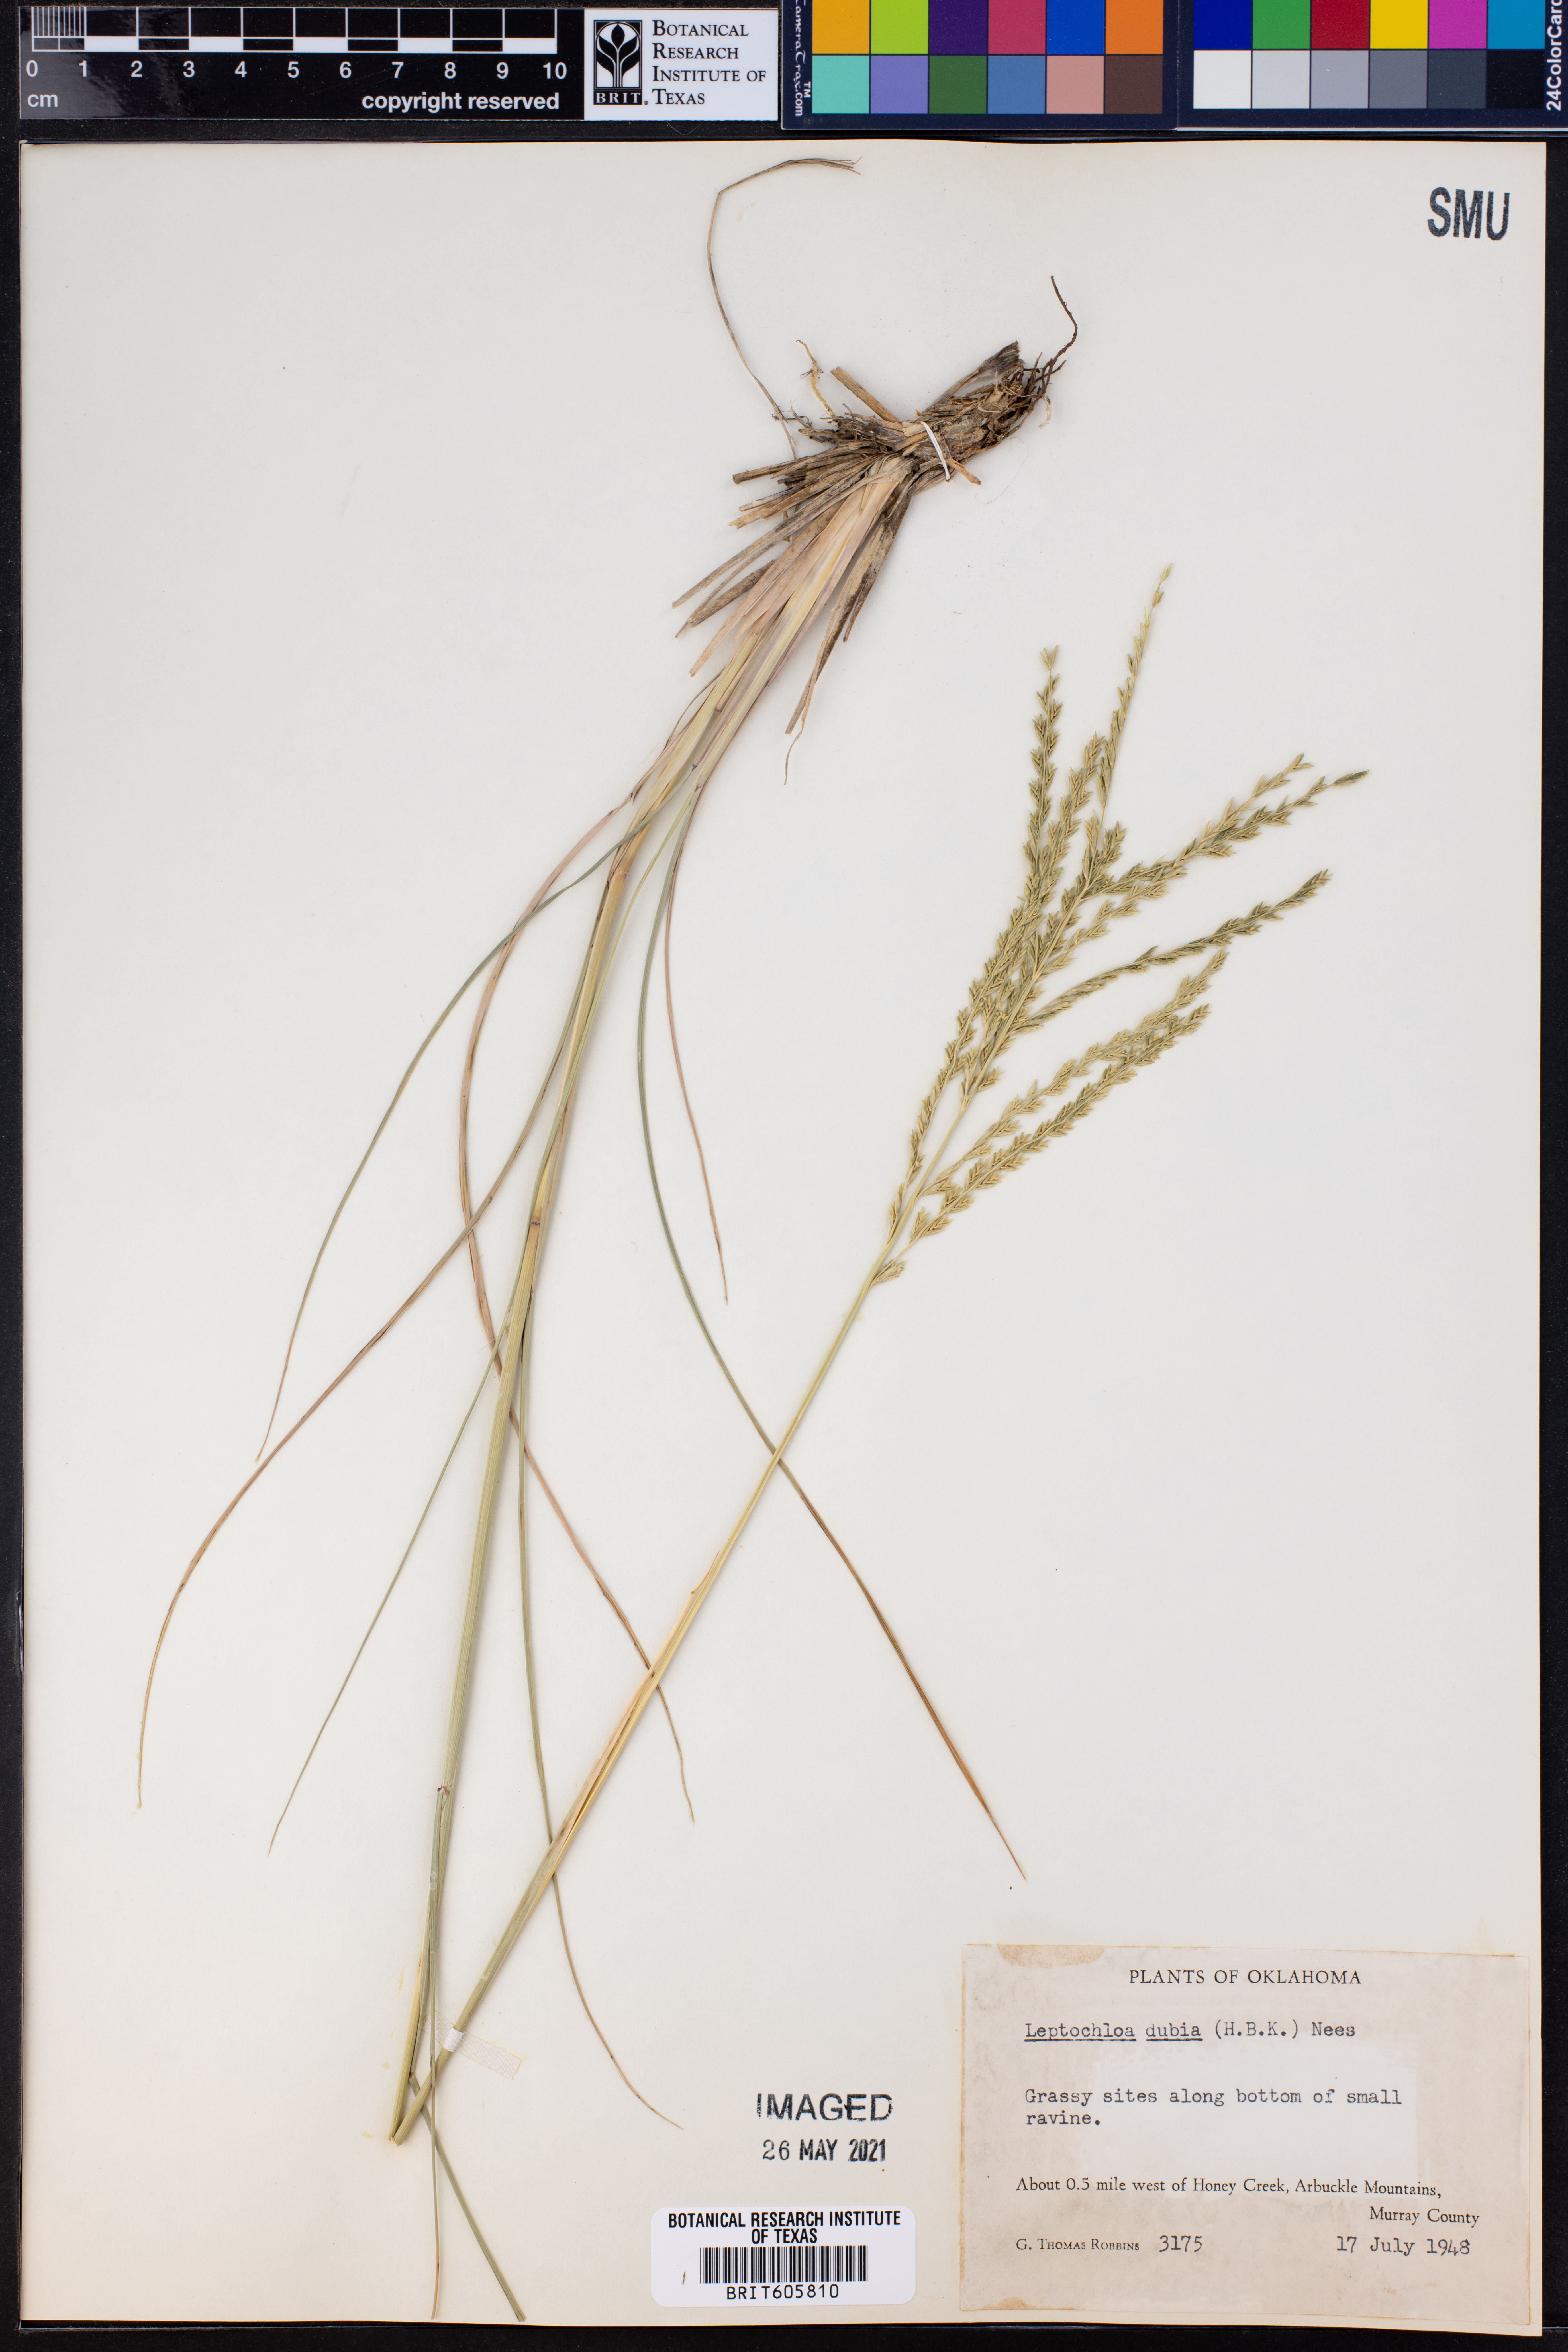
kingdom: Plantae
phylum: Tracheophyta
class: Liliopsida
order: Poales
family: Poaceae
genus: Disakisperma
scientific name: Disakisperma dubium
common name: Green sprangletop
